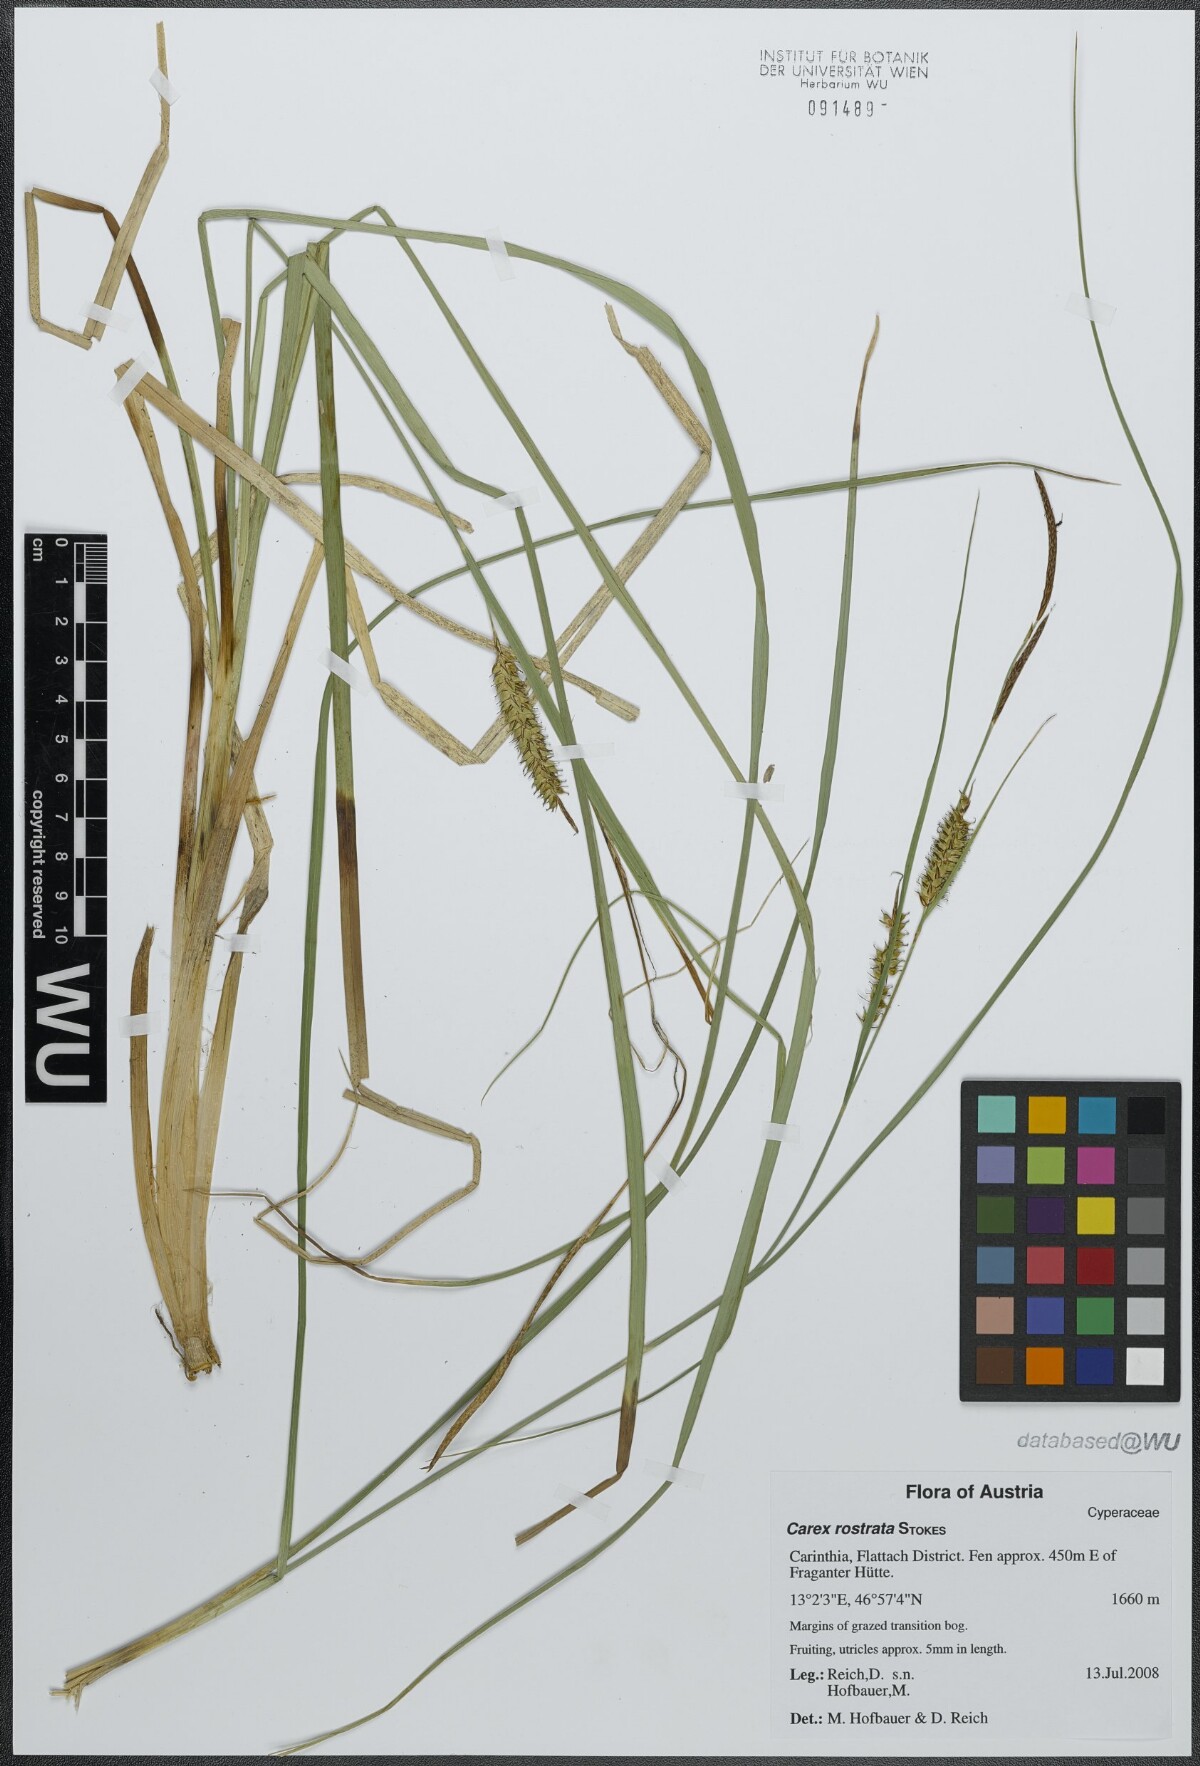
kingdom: Plantae
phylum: Tracheophyta
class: Liliopsida
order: Poales
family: Cyperaceae
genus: Carex
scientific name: Carex rostrata
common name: Bottle sedge
